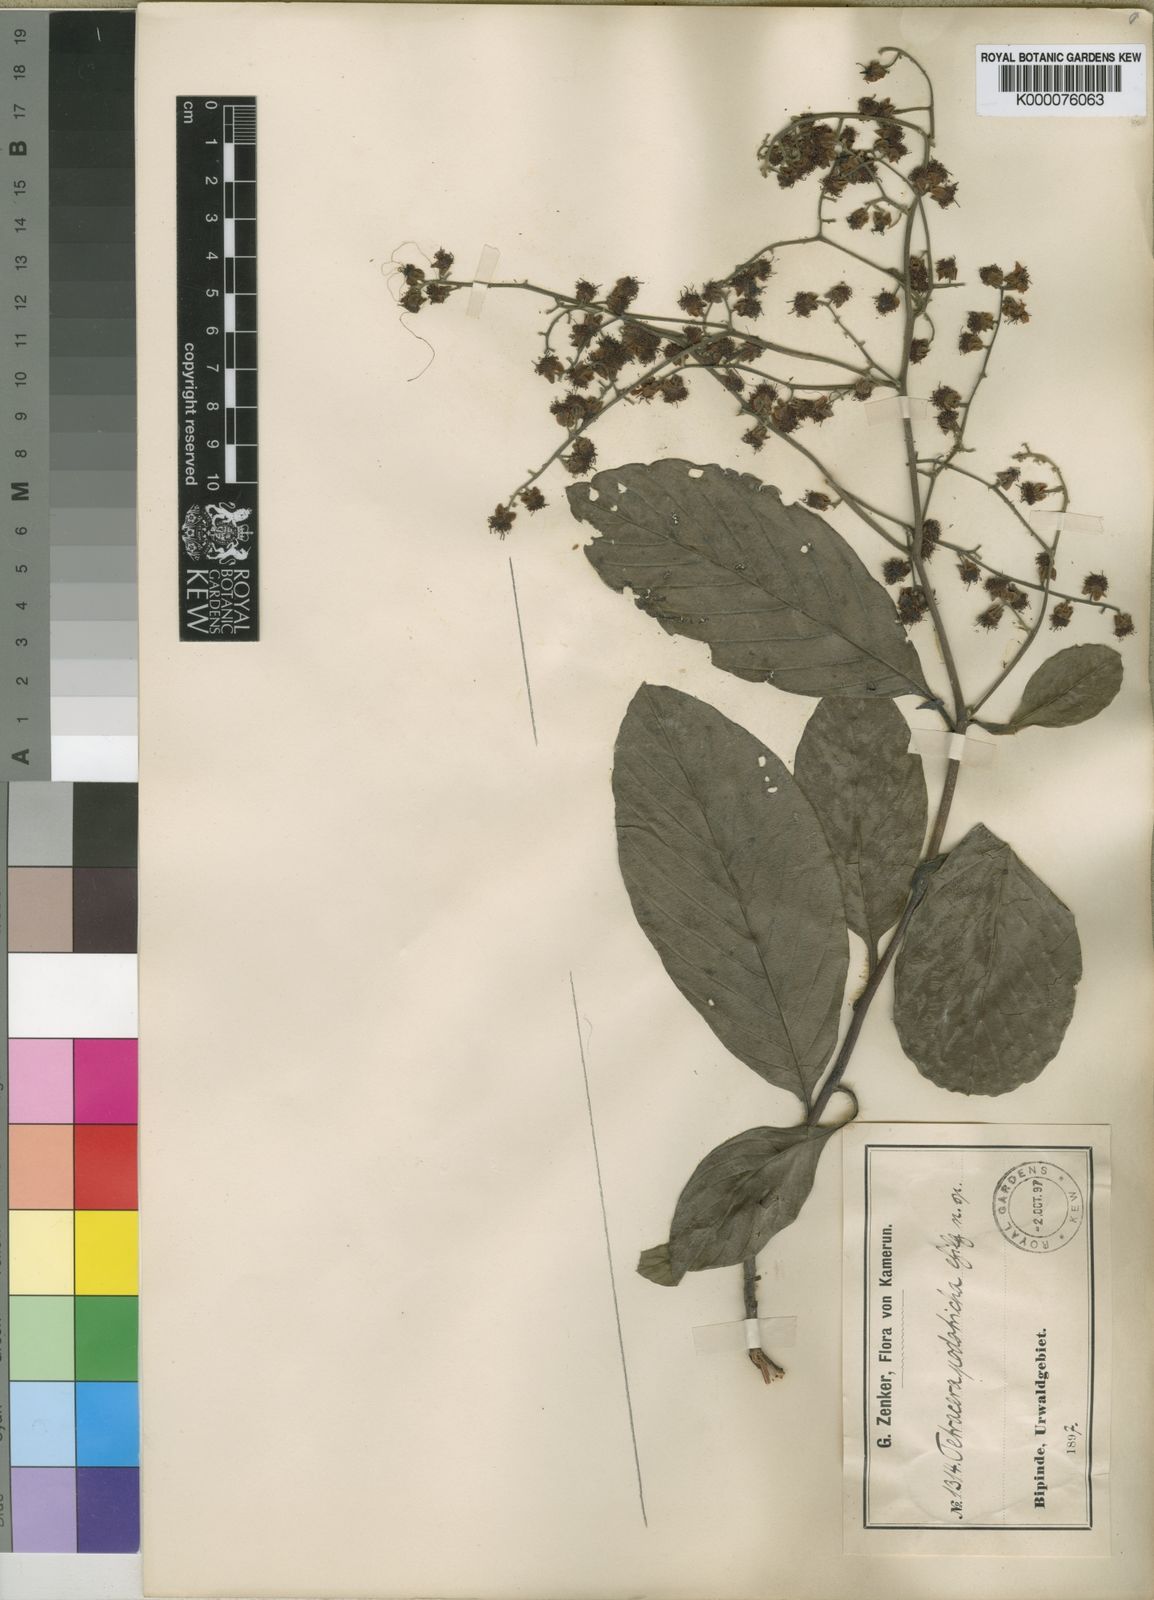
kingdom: Plantae
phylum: Tracheophyta
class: Magnoliopsida
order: Dilleniales
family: Dilleniaceae
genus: Tetracera
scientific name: Tetracera alnifolia
